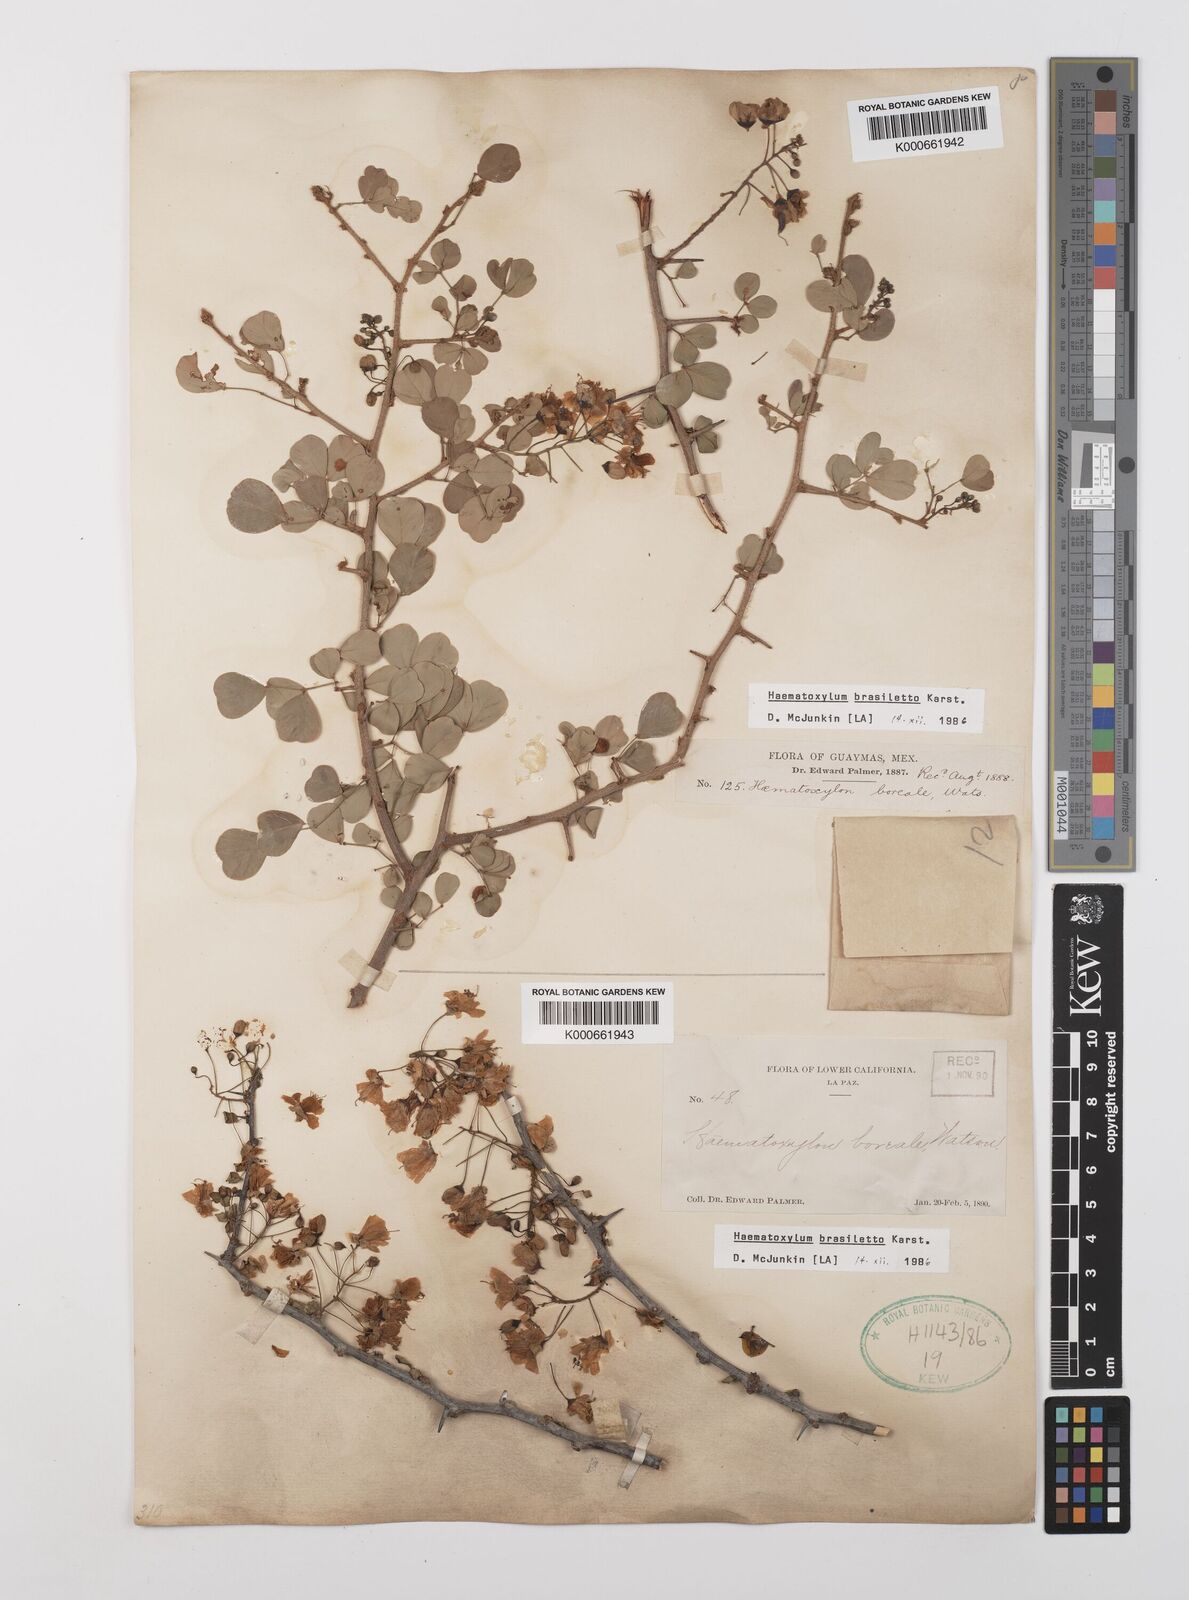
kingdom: Plantae
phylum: Tracheophyta
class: Magnoliopsida
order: Fabales
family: Fabaceae
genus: Haematoxylum
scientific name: Haematoxylum brasiletto
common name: Peachwood
